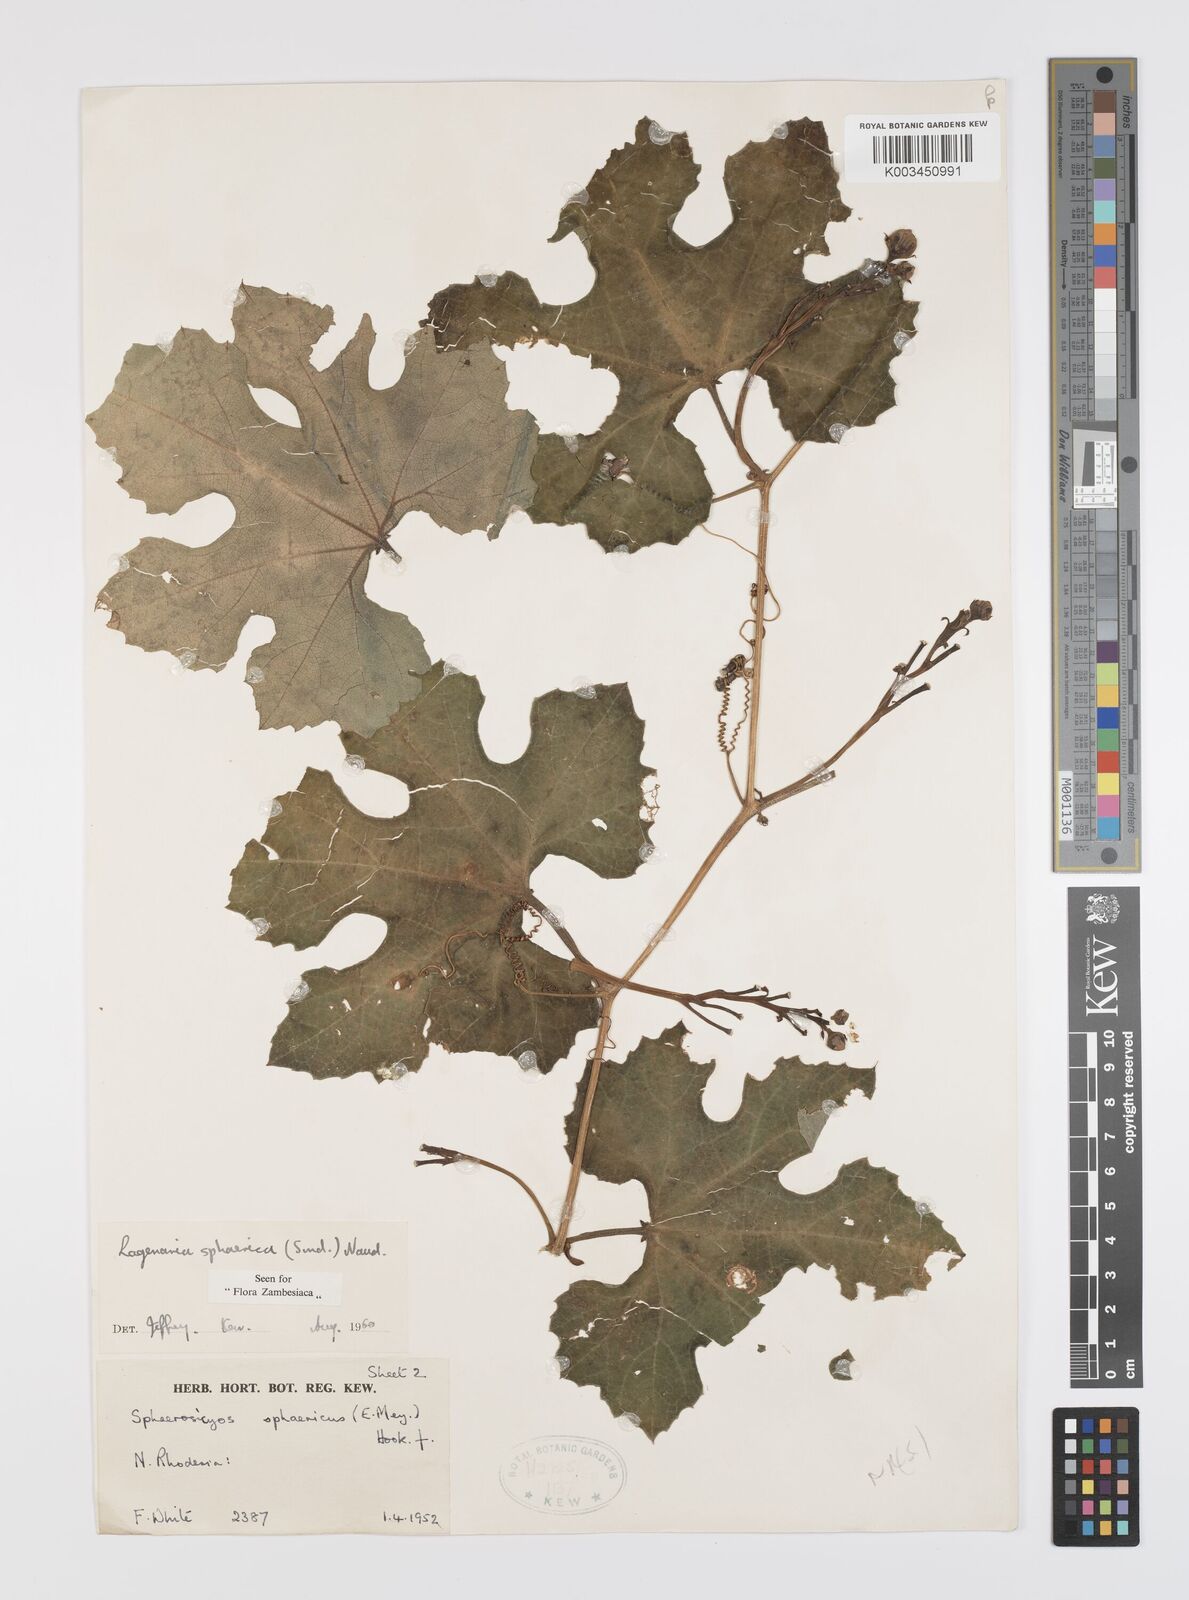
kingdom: Plantae
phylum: Tracheophyta
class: Magnoliopsida
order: Cucurbitales
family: Cucurbitaceae
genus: Lagenaria
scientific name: Lagenaria sphaerica
